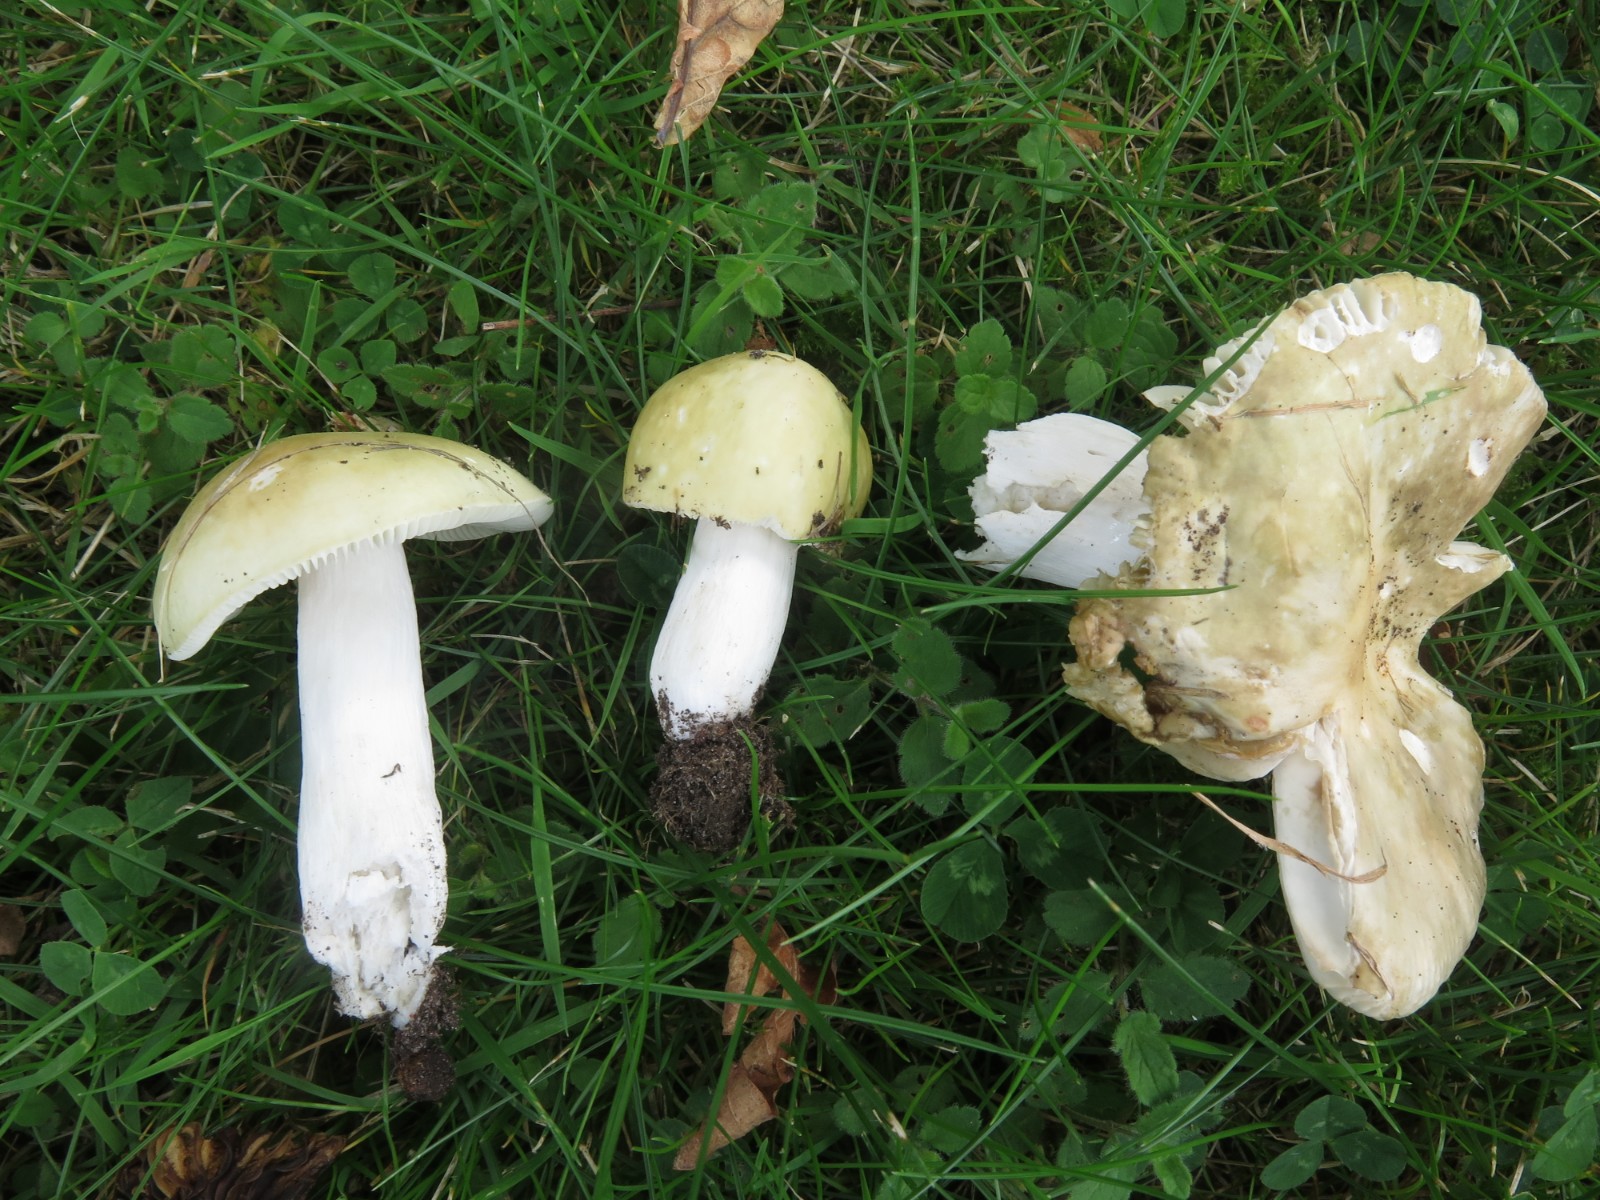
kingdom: Fungi
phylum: Basidiomycota
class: Agaricomycetes
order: Russulales
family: Russulaceae
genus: Russula
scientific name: Russula
